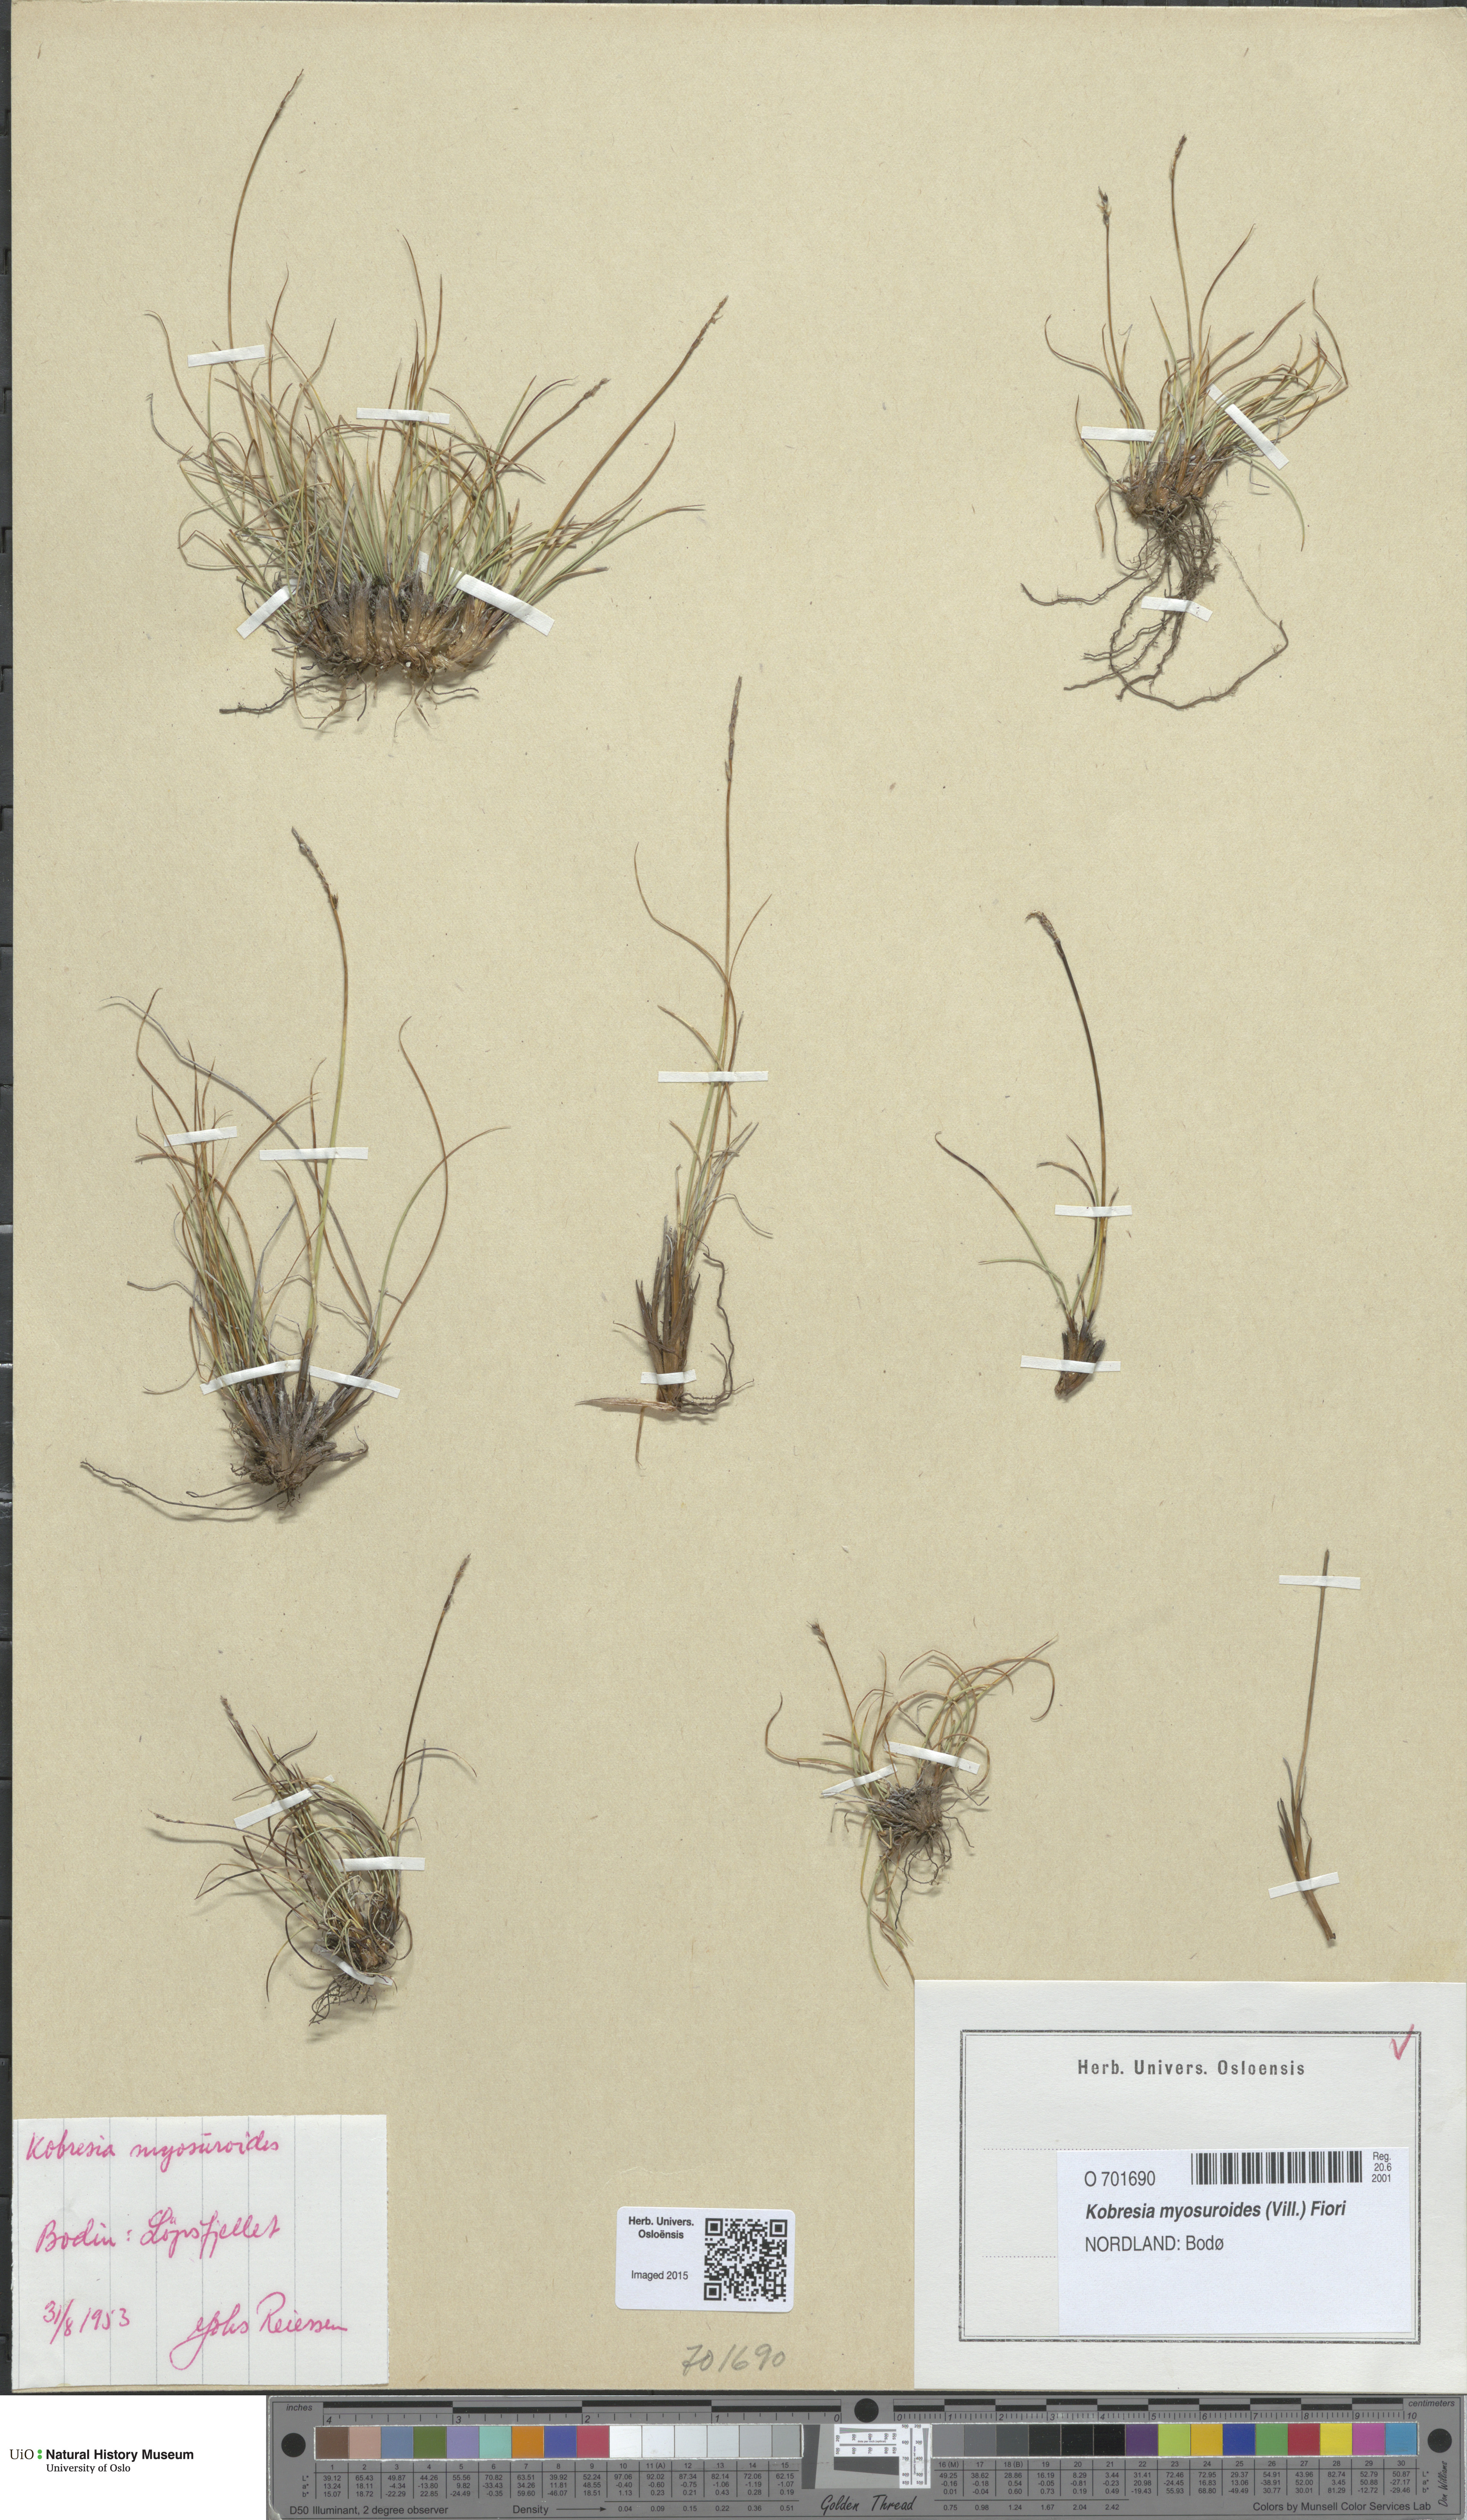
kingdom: Plantae
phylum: Tracheophyta
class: Liliopsida
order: Poales
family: Cyperaceae
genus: Carex
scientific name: Carex myosuroides
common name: Bellard's bog sedge
